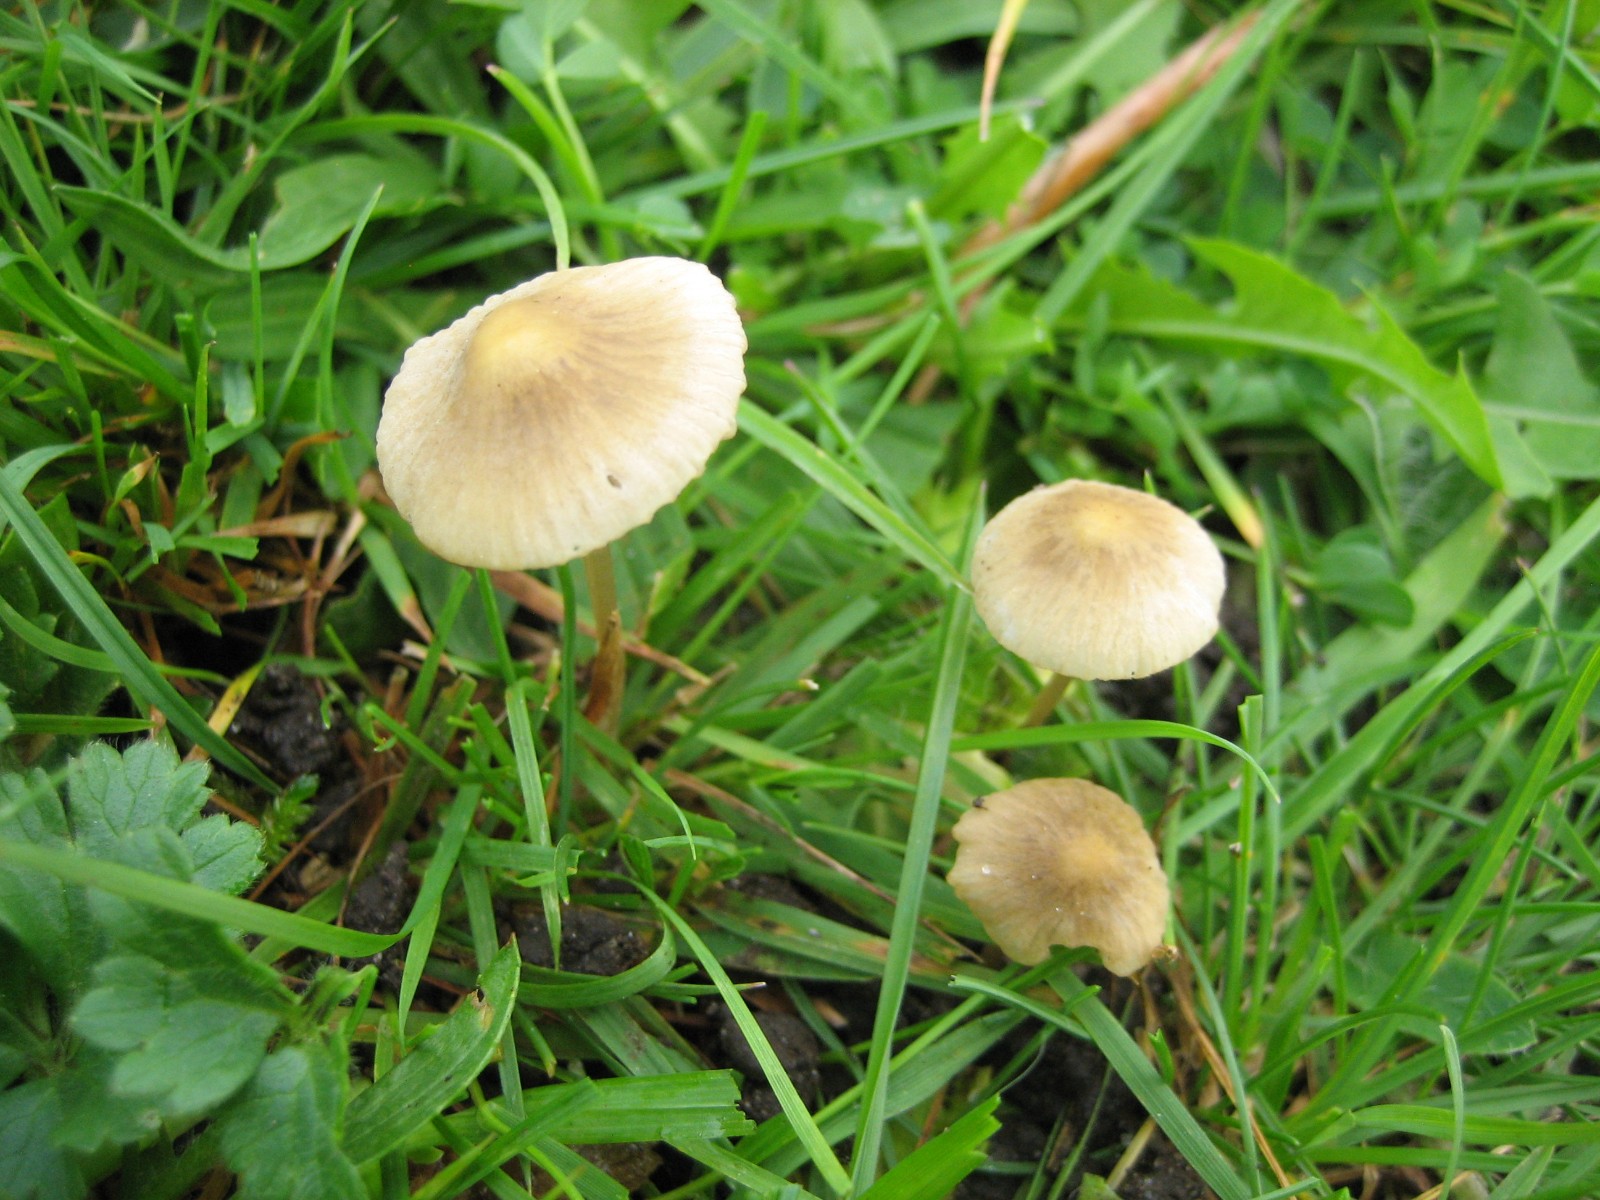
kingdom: Fungi
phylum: Basidiomycota
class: Agaricomycetes
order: Agaricales
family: Mycenaceae
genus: Mycena
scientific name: Mycena
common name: huesvamp
